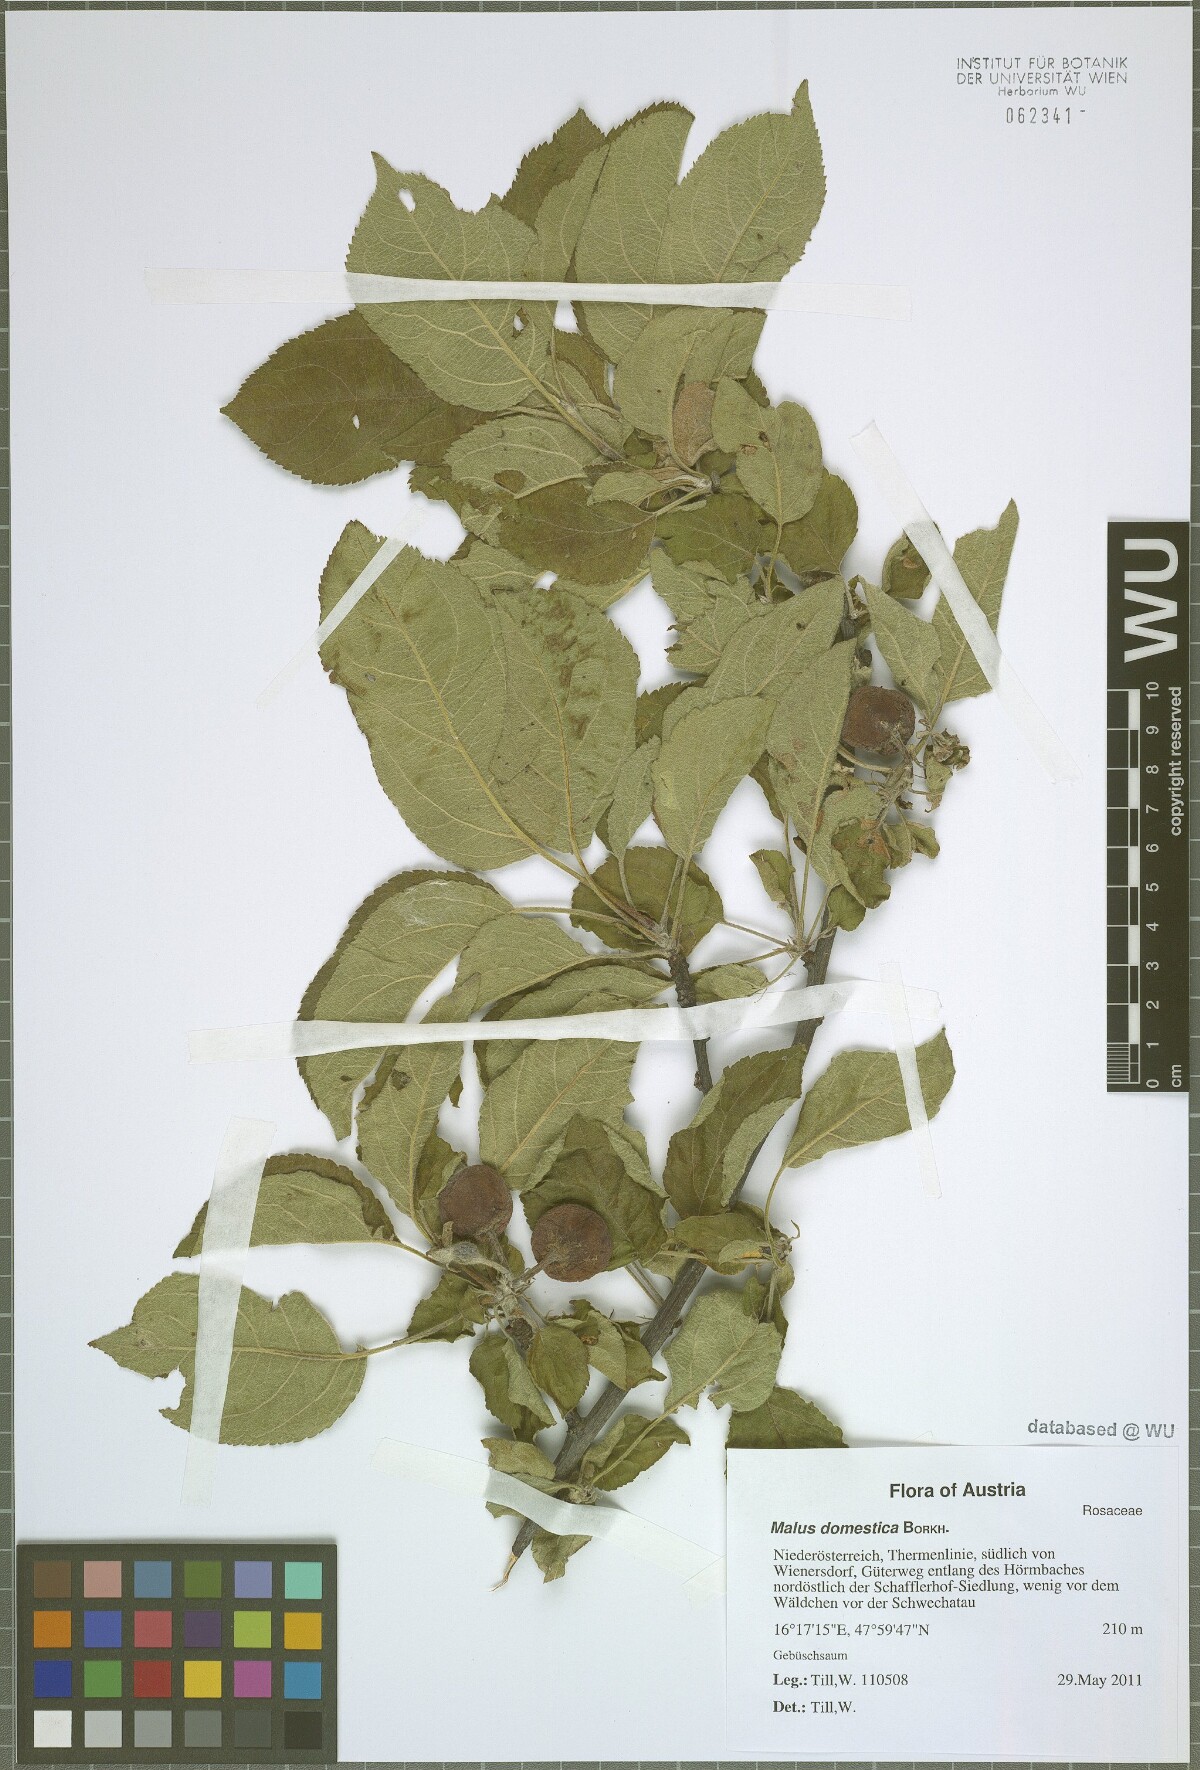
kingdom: Plantae
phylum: Tracheophyta
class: Magnoliopsida
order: Rosales
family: Rosaceae
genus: Malus
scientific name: Malus domestica
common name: Apple
